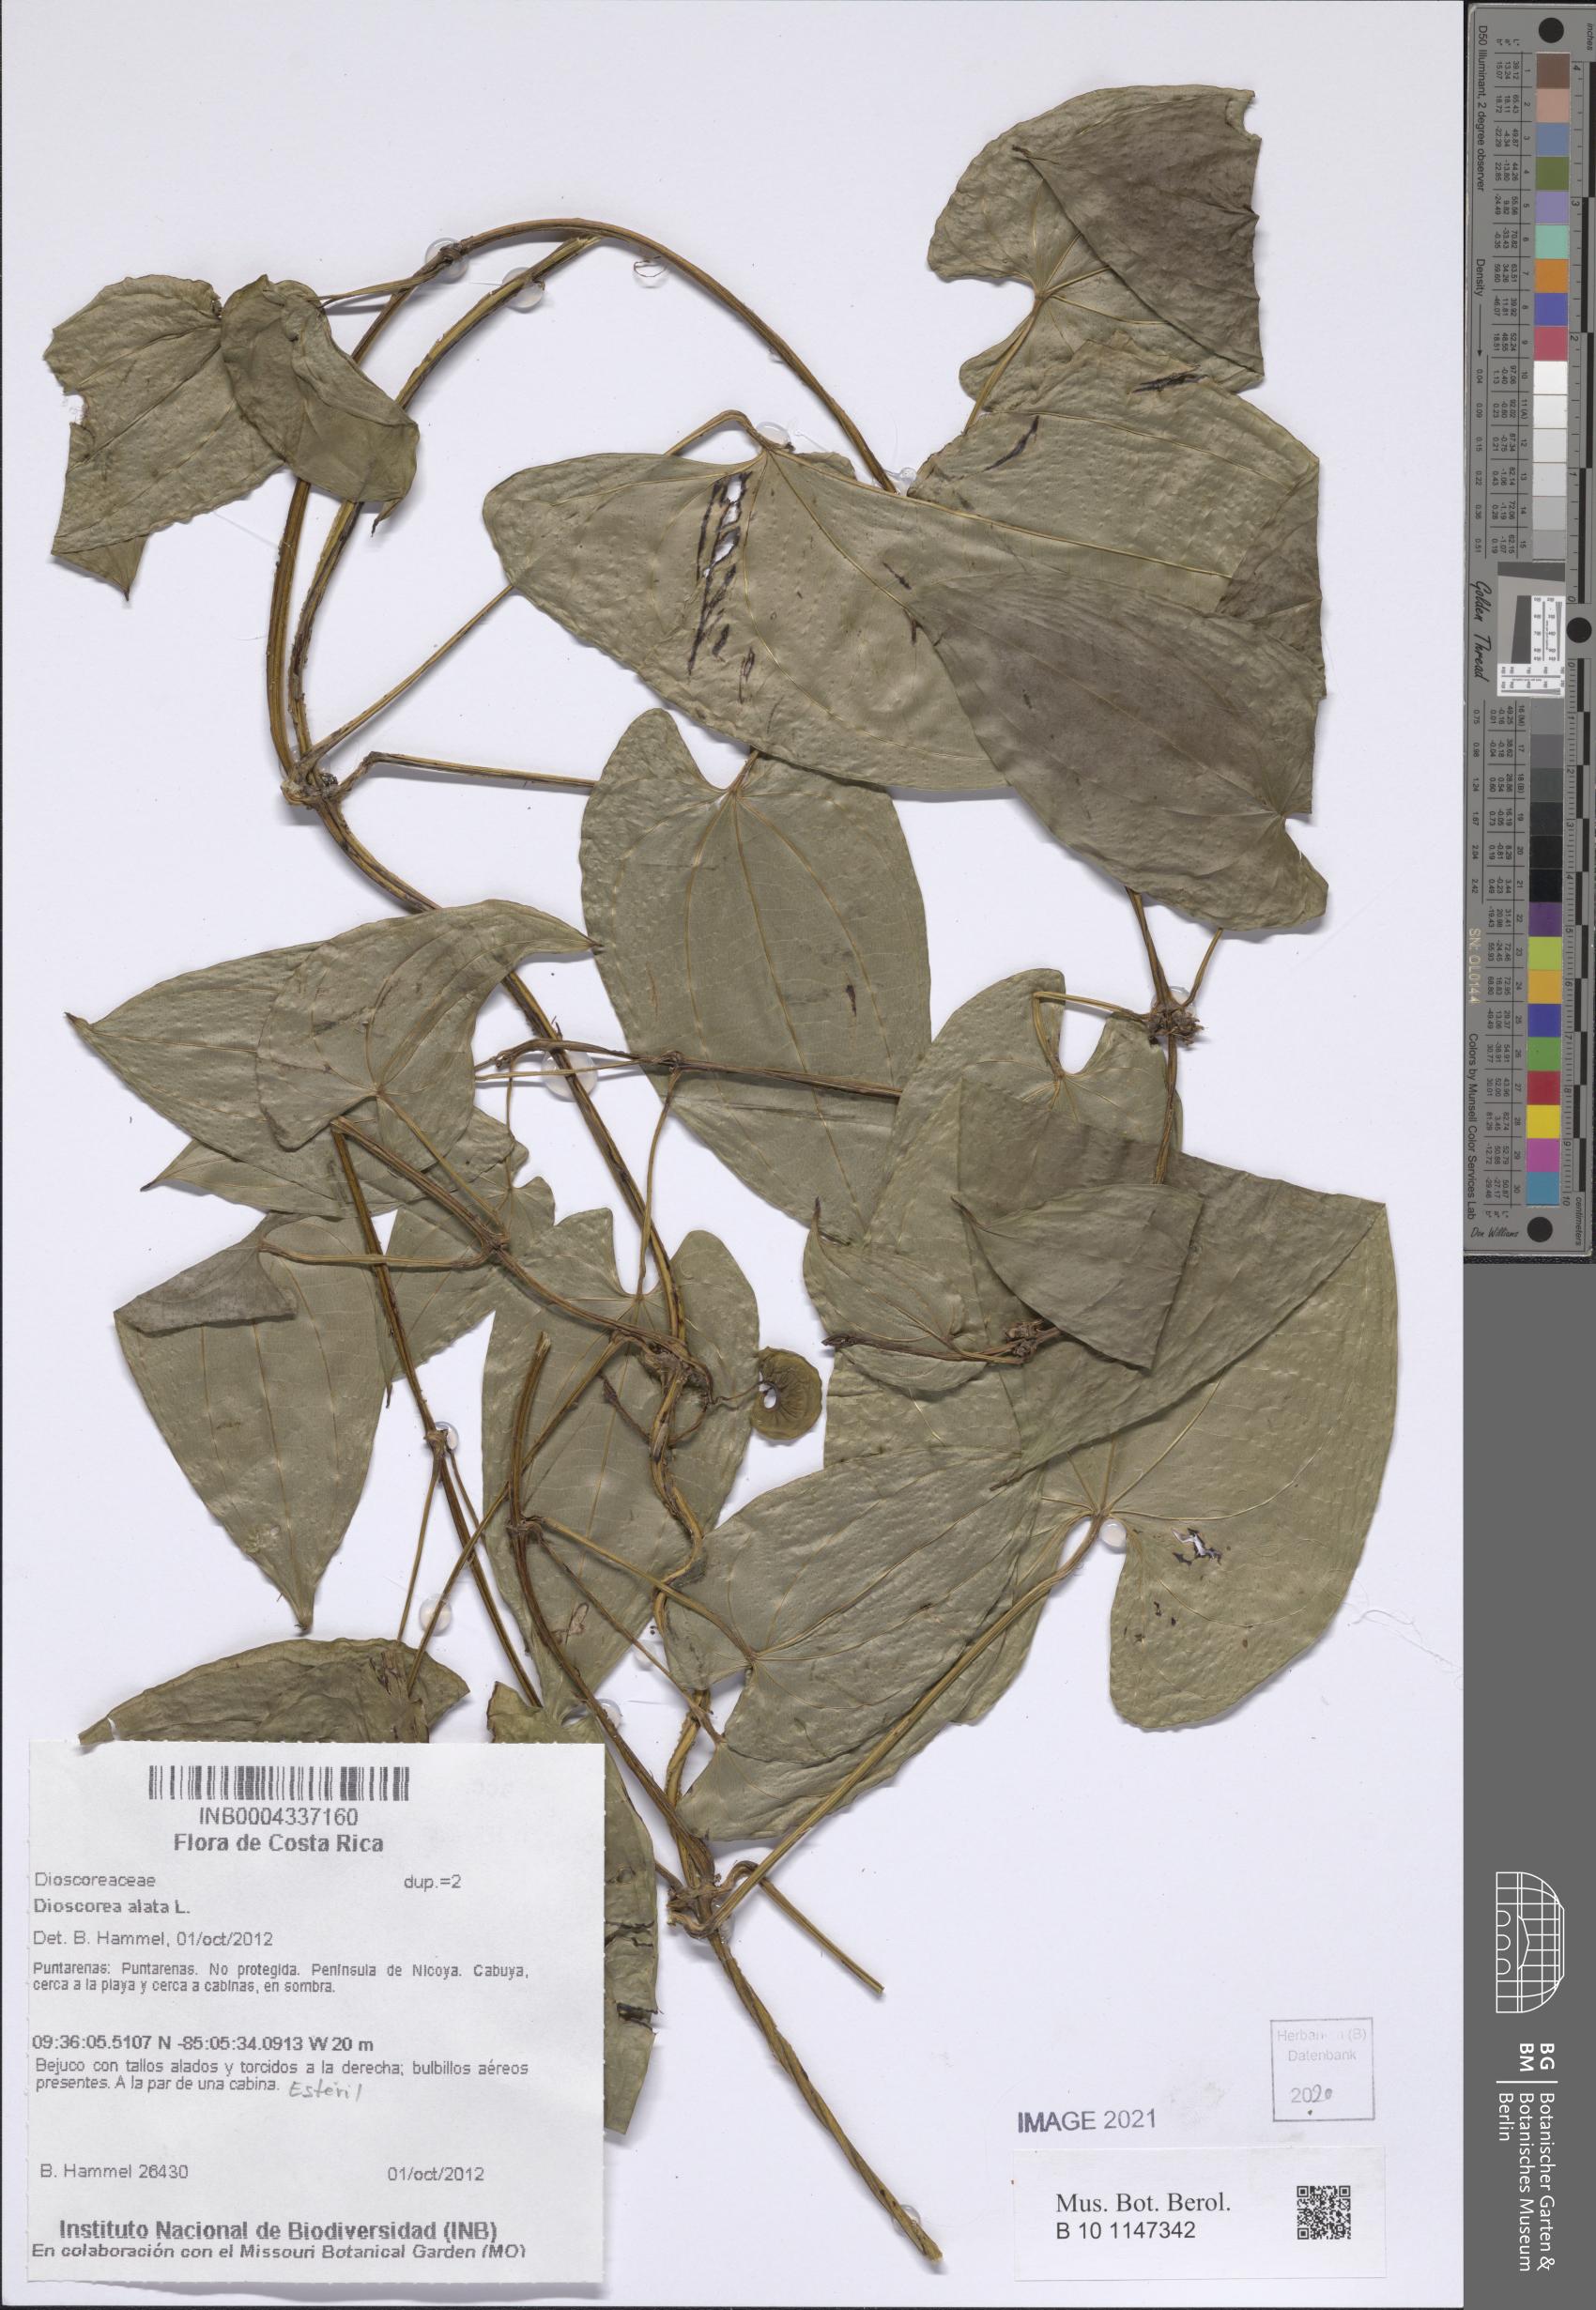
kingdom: Plantae
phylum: Tracheophyta
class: Liliopsida
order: Dioscoreales
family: Dioscoreaceae
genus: Dioscorea
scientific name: Dioscorea alata
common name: Water yam
